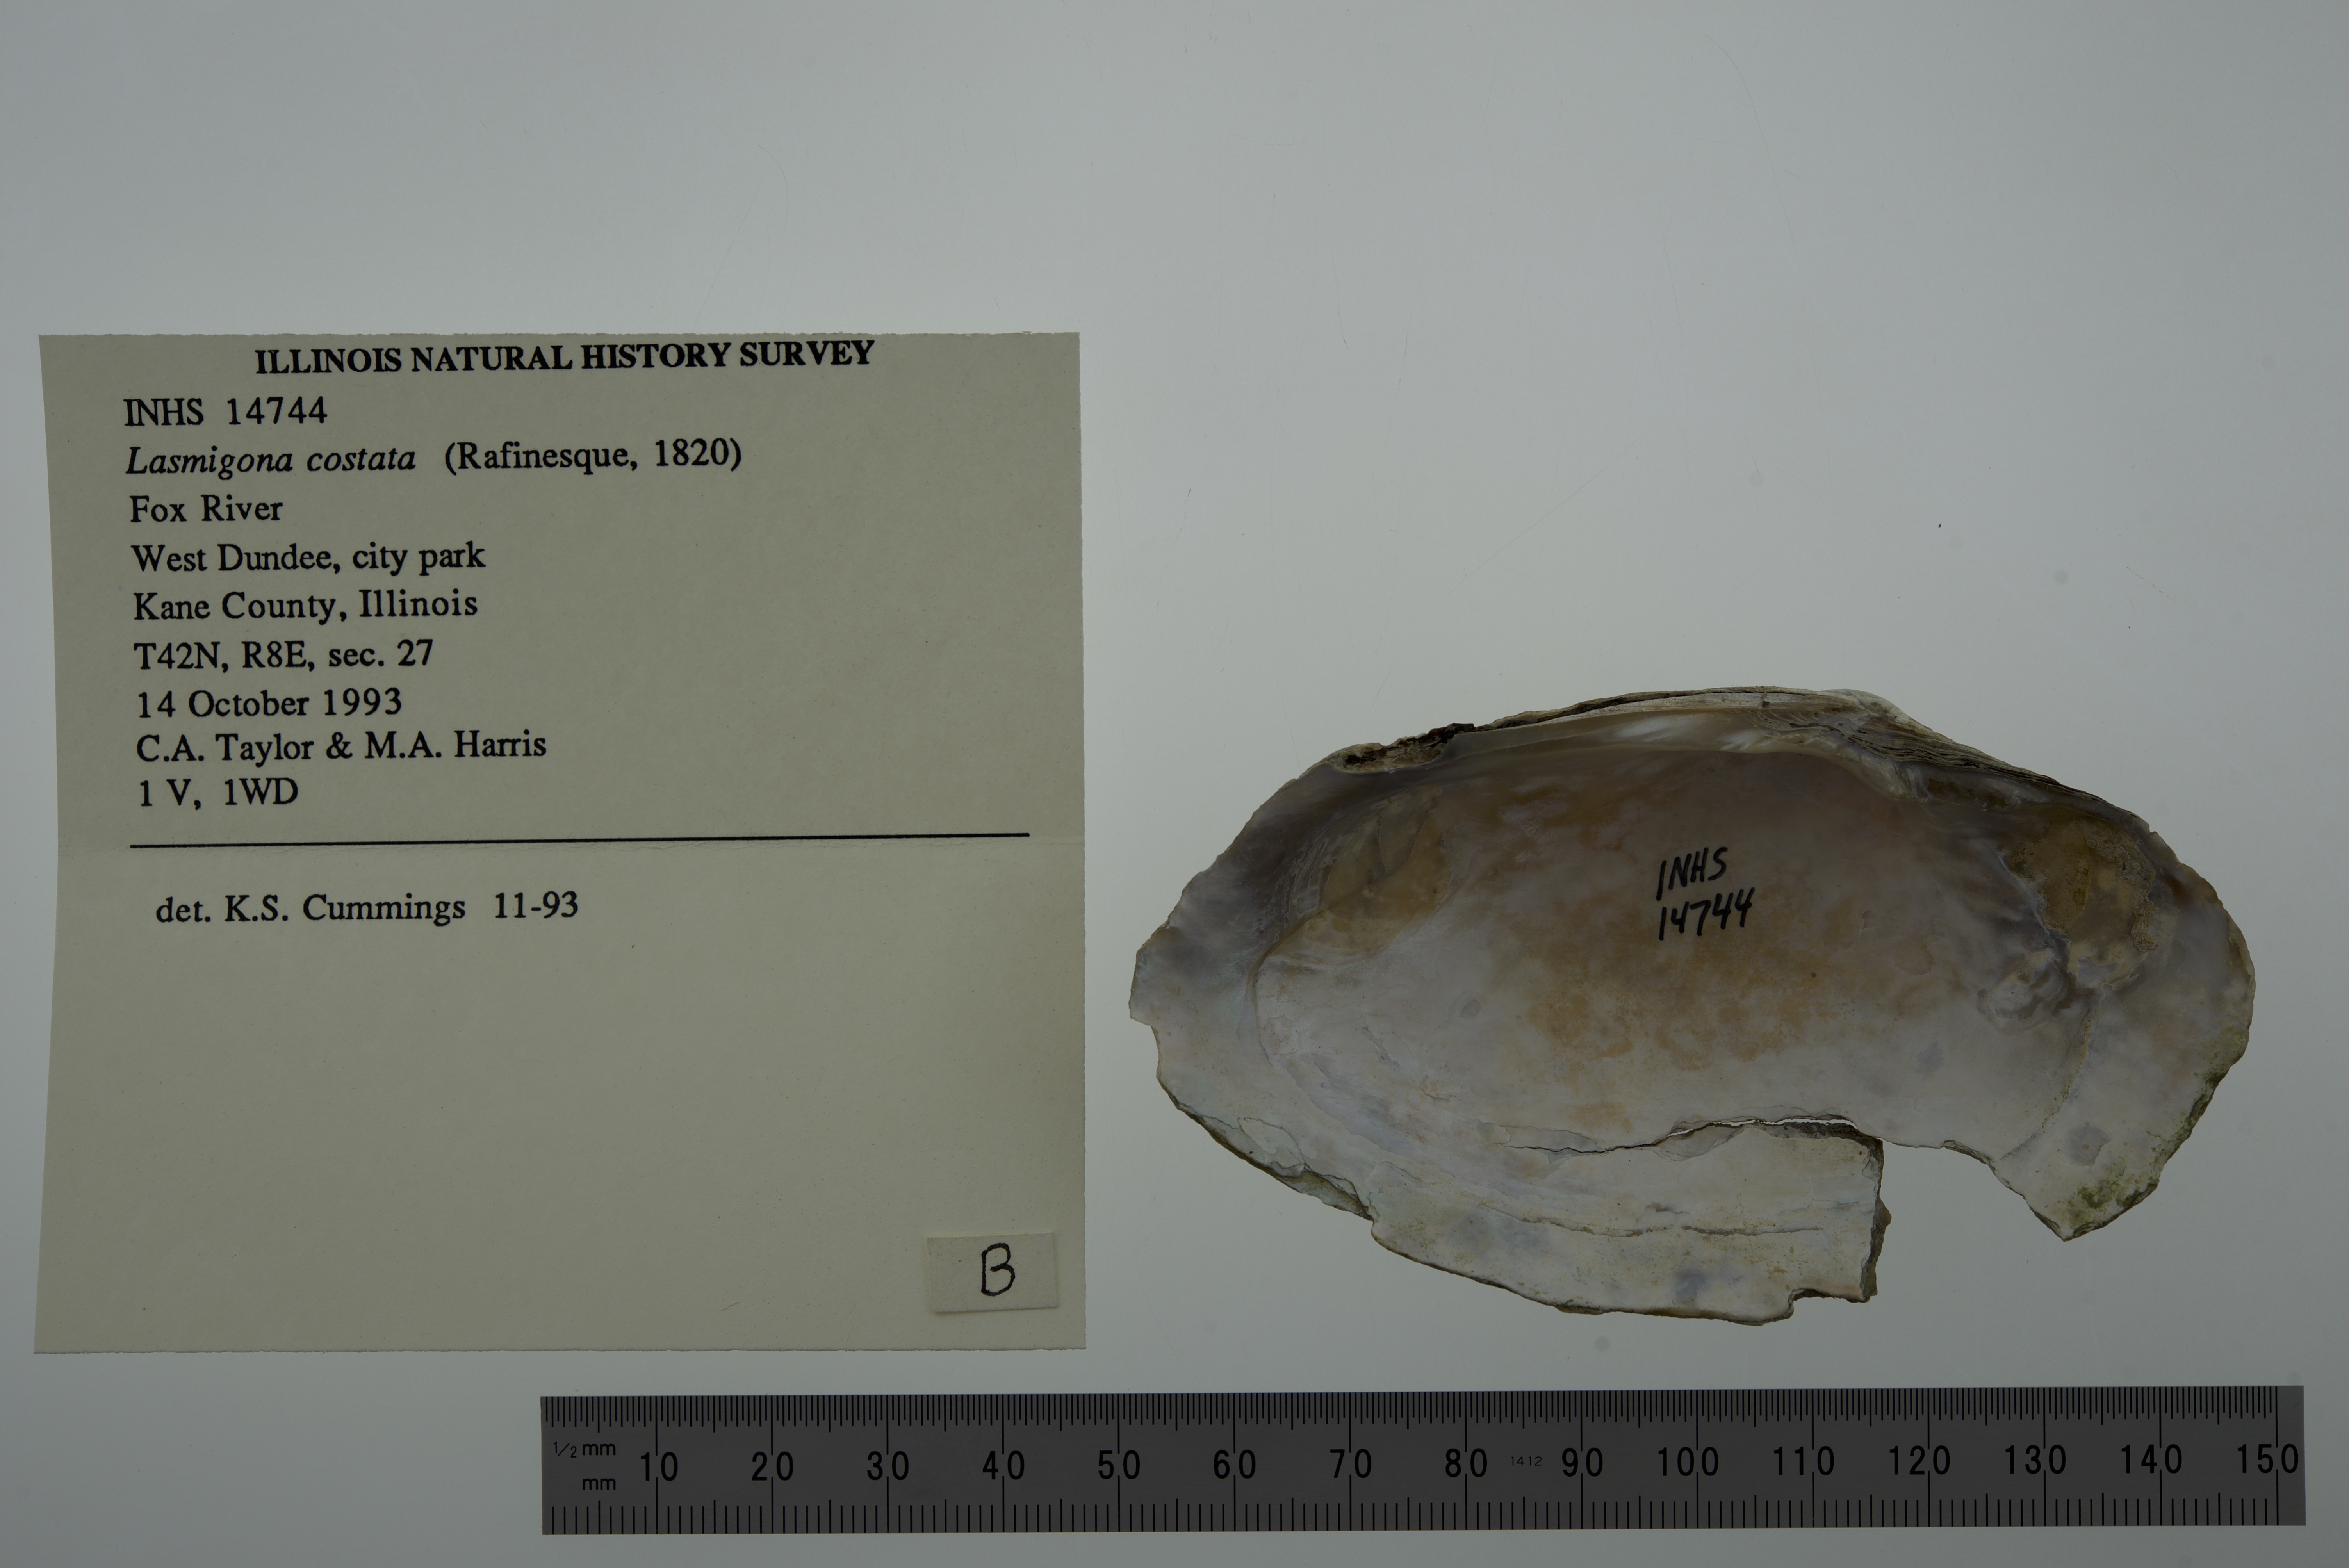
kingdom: Animalia
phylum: Mollusca
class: Bivalvia
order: Unionida
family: Unionidae
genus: Lasmigona
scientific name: Lasmigona costata
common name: Flutedshell
